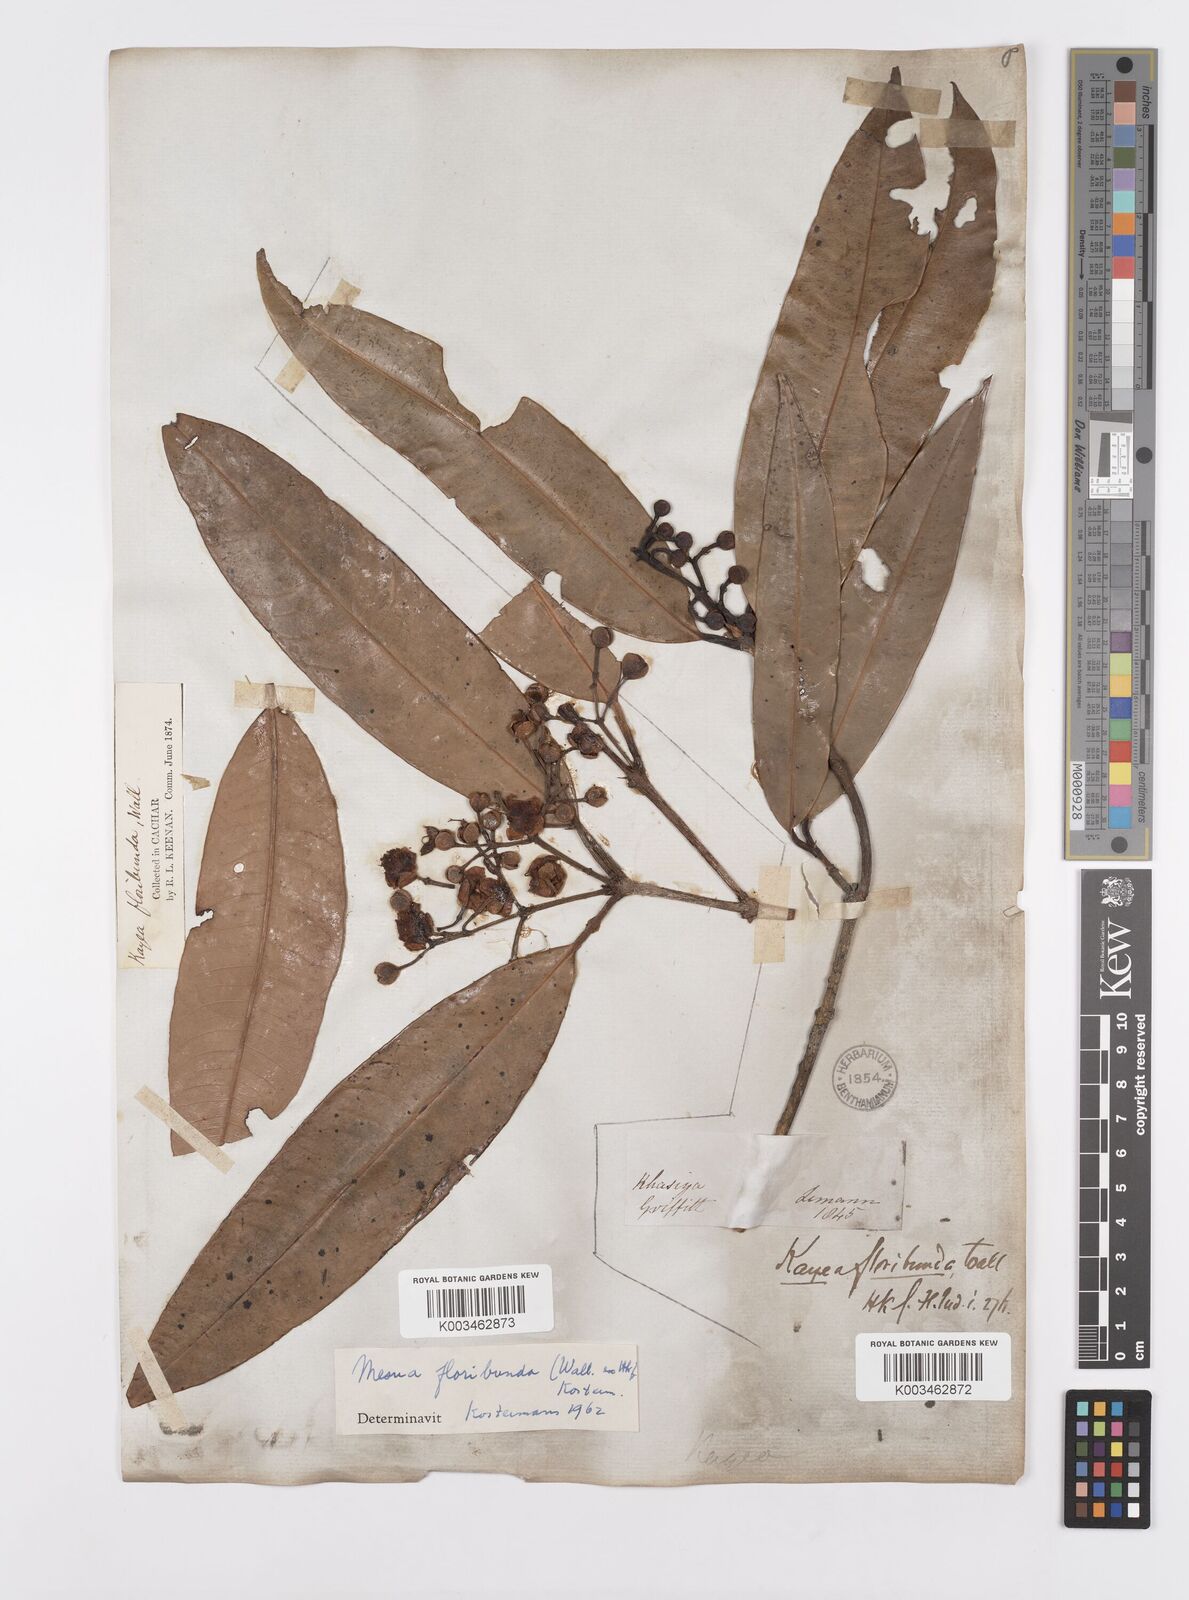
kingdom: Plantae
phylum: Tracheophyta
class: Magnoliopsida
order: Malpighiales
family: Calophyllaceae
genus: Kayea
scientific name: Kayea floribunda
